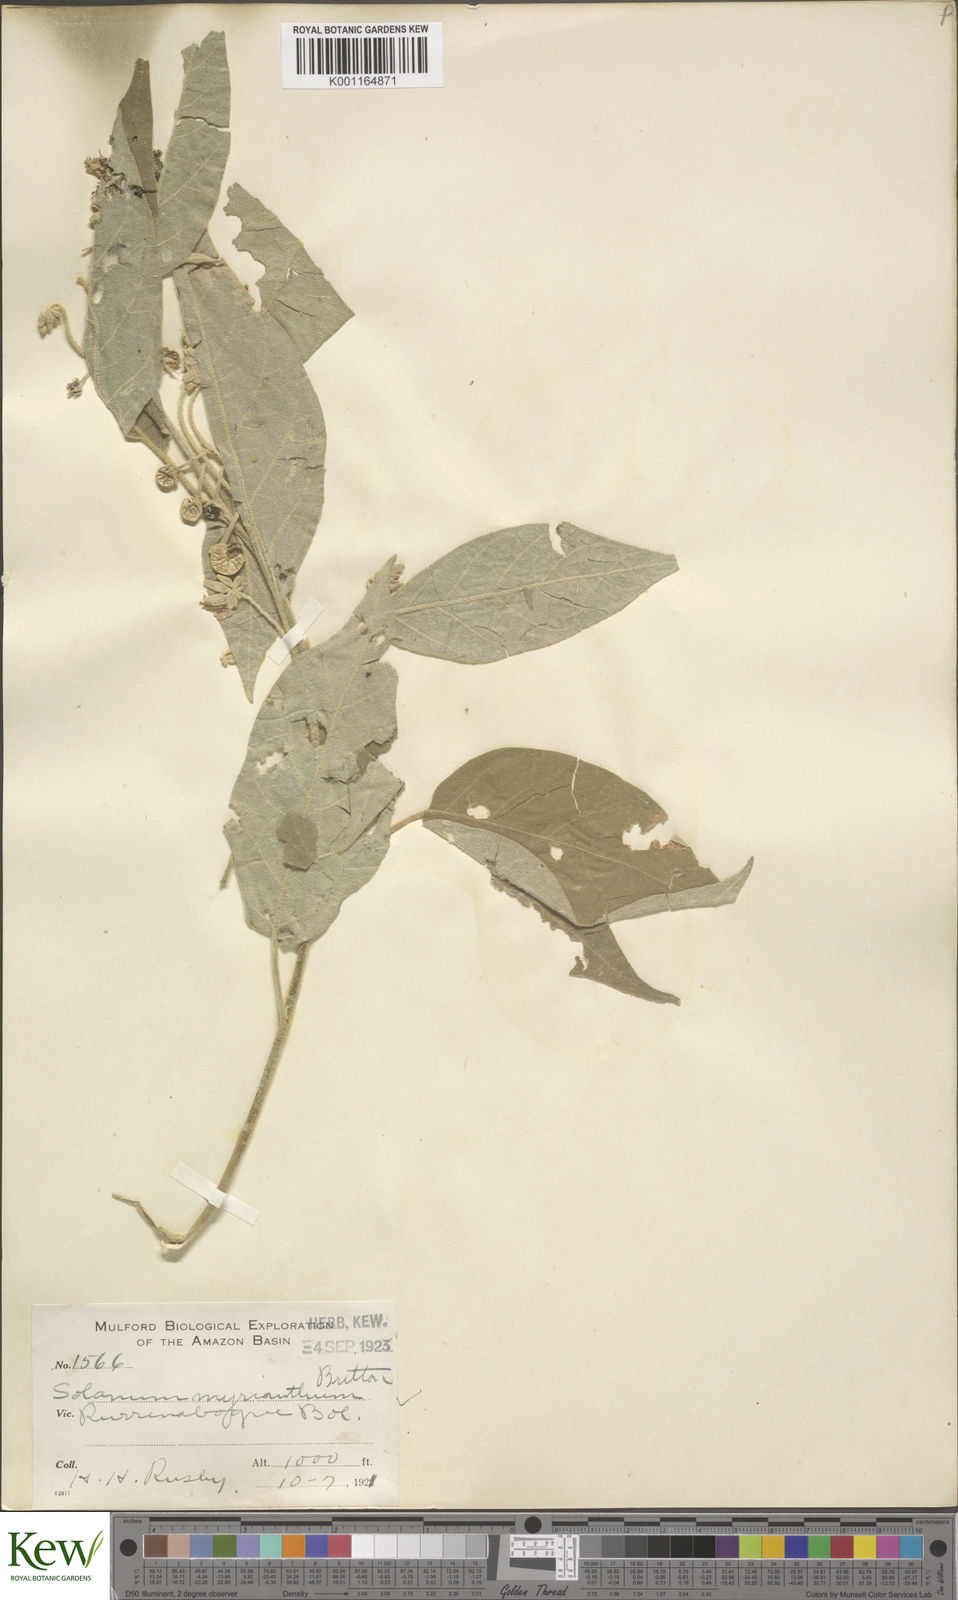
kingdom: Plantae
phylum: Tracheophyta
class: Magnoliopsida
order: Solanales
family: Solanaceae
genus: Solanum
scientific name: Solanum myriacanthum
